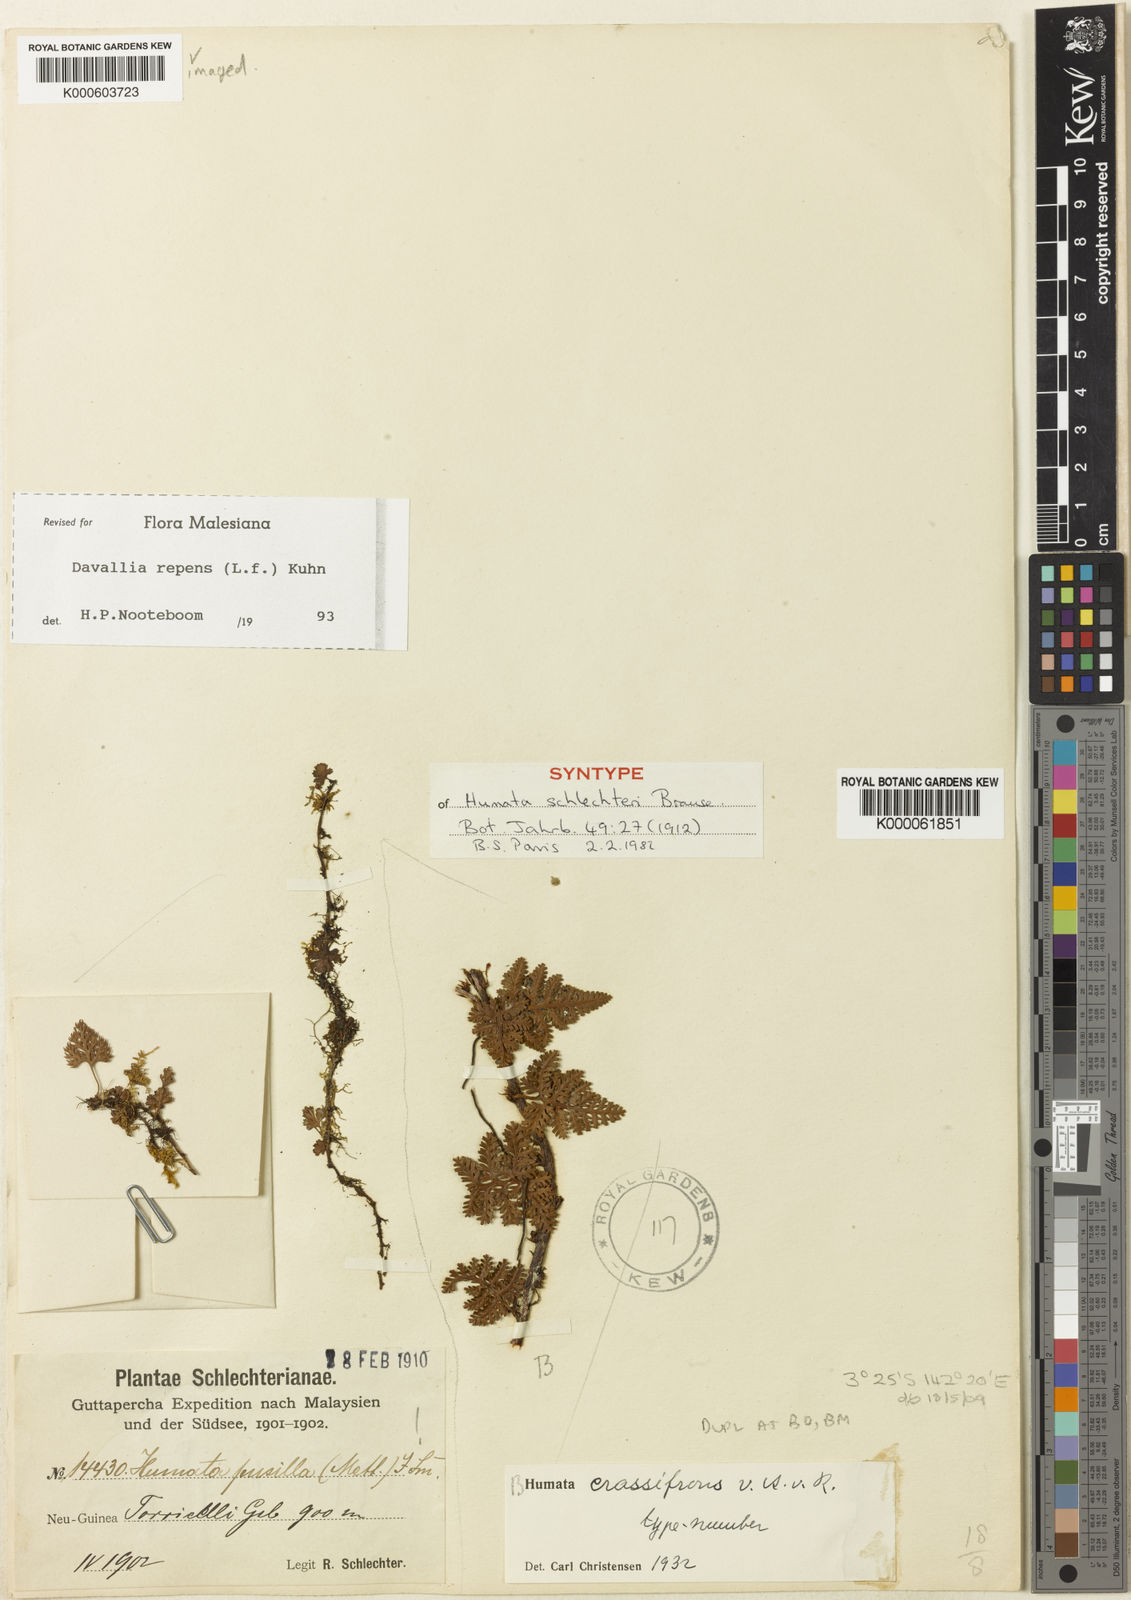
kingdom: Plantae
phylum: Tracheophyta
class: Polypodiopsida
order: Polypodiales
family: Davalliaceae
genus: Davallia
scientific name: Davallia repens
